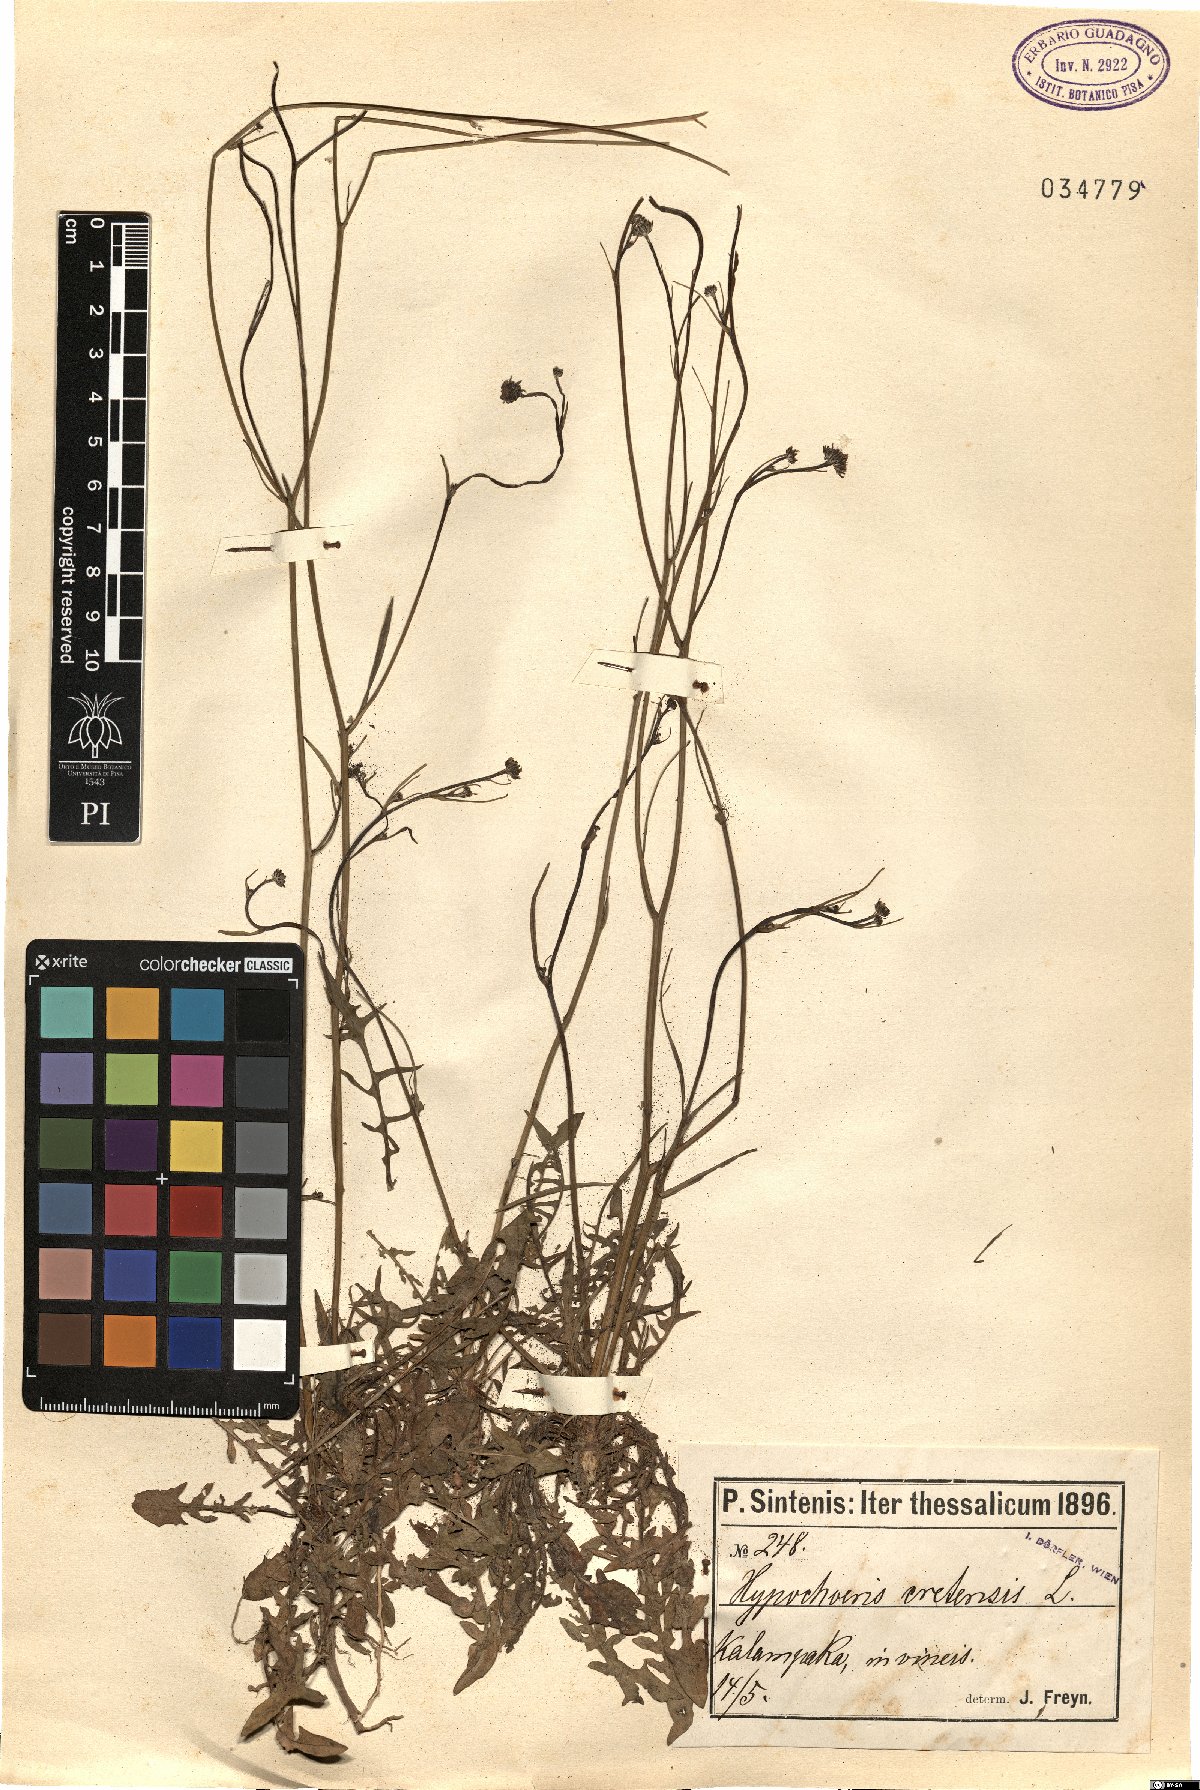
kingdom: Plantae
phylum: Tracheophyta
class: Magnoliopsida
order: Asterales
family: Asteraceae
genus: Hypochaeris
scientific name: Hypochaeris cretensis
